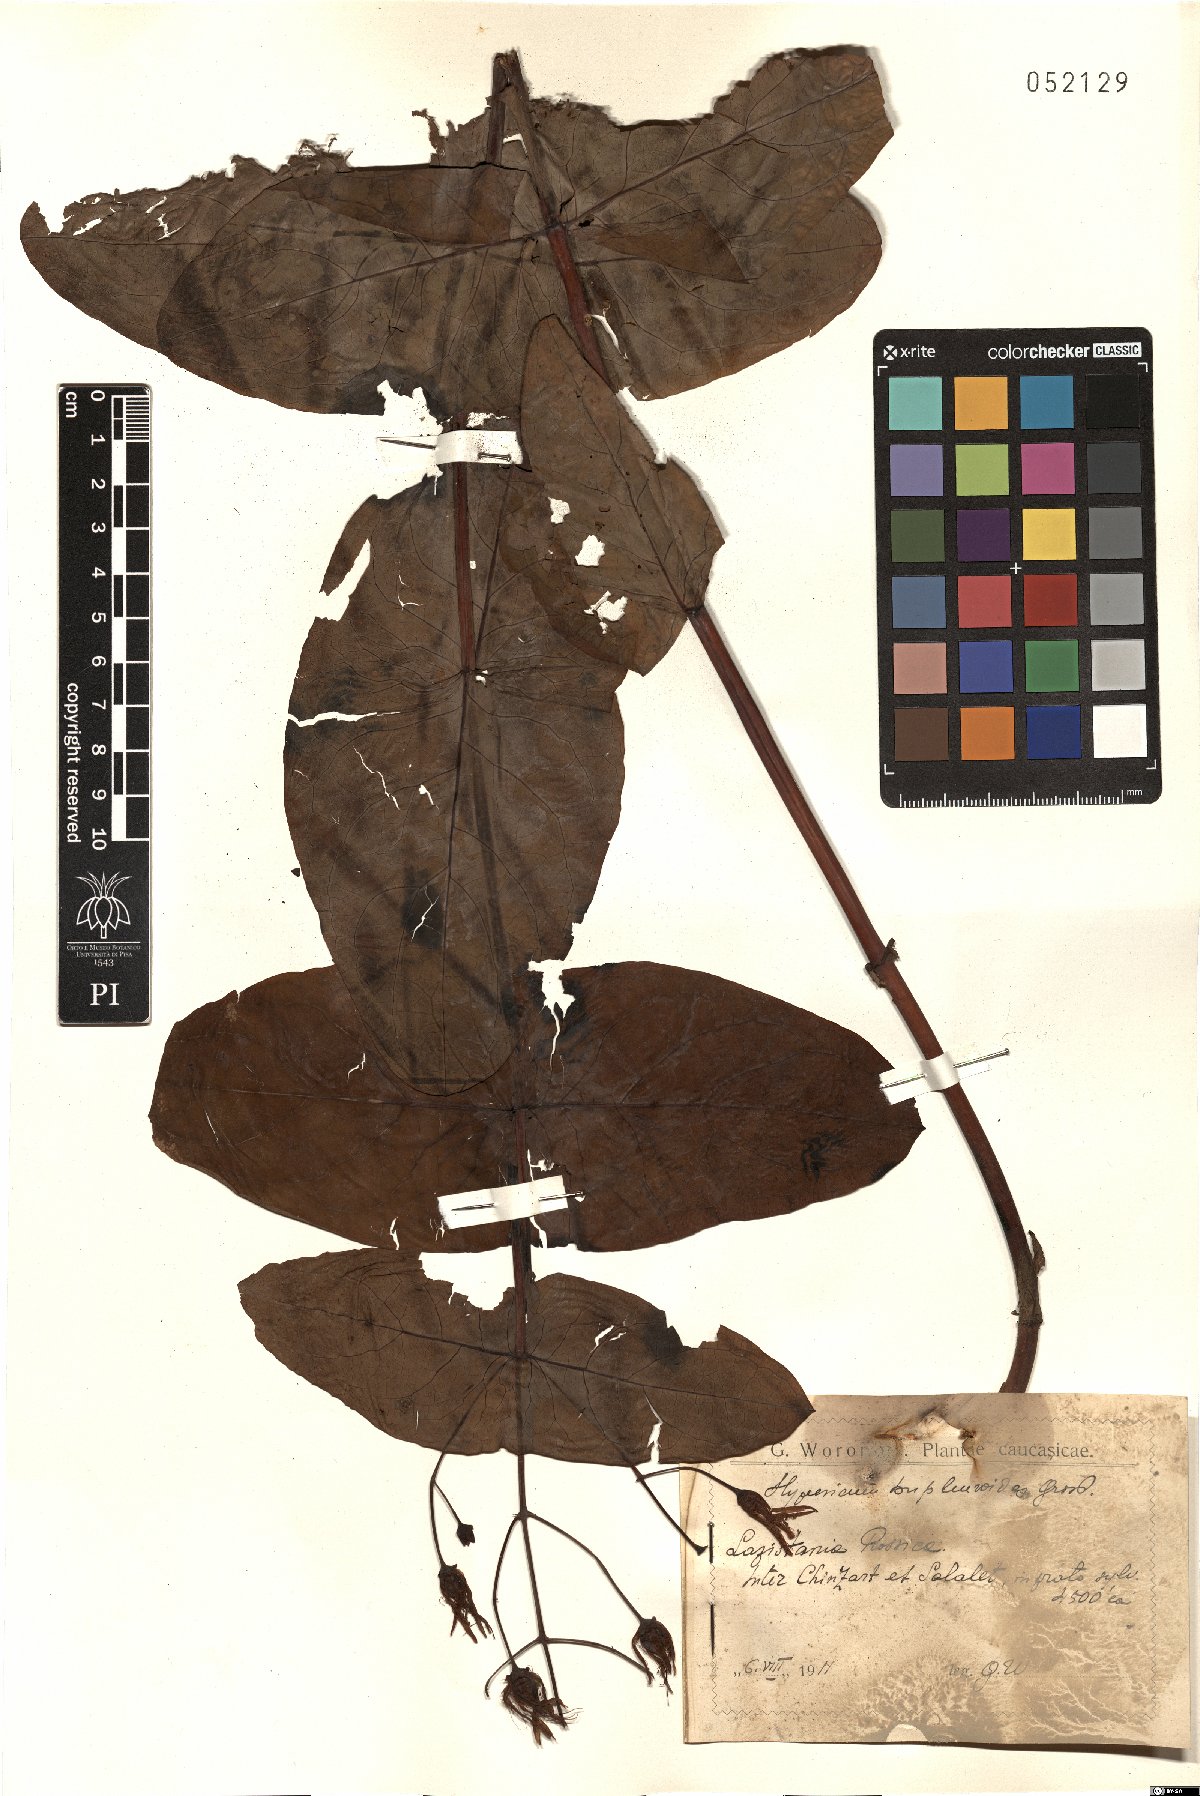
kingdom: Plantae
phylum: Tracheophyta
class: Magnoliopsida
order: Malpighiales
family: Hypericaceae
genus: Hypericum
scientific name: Hypericum bupleuroides
